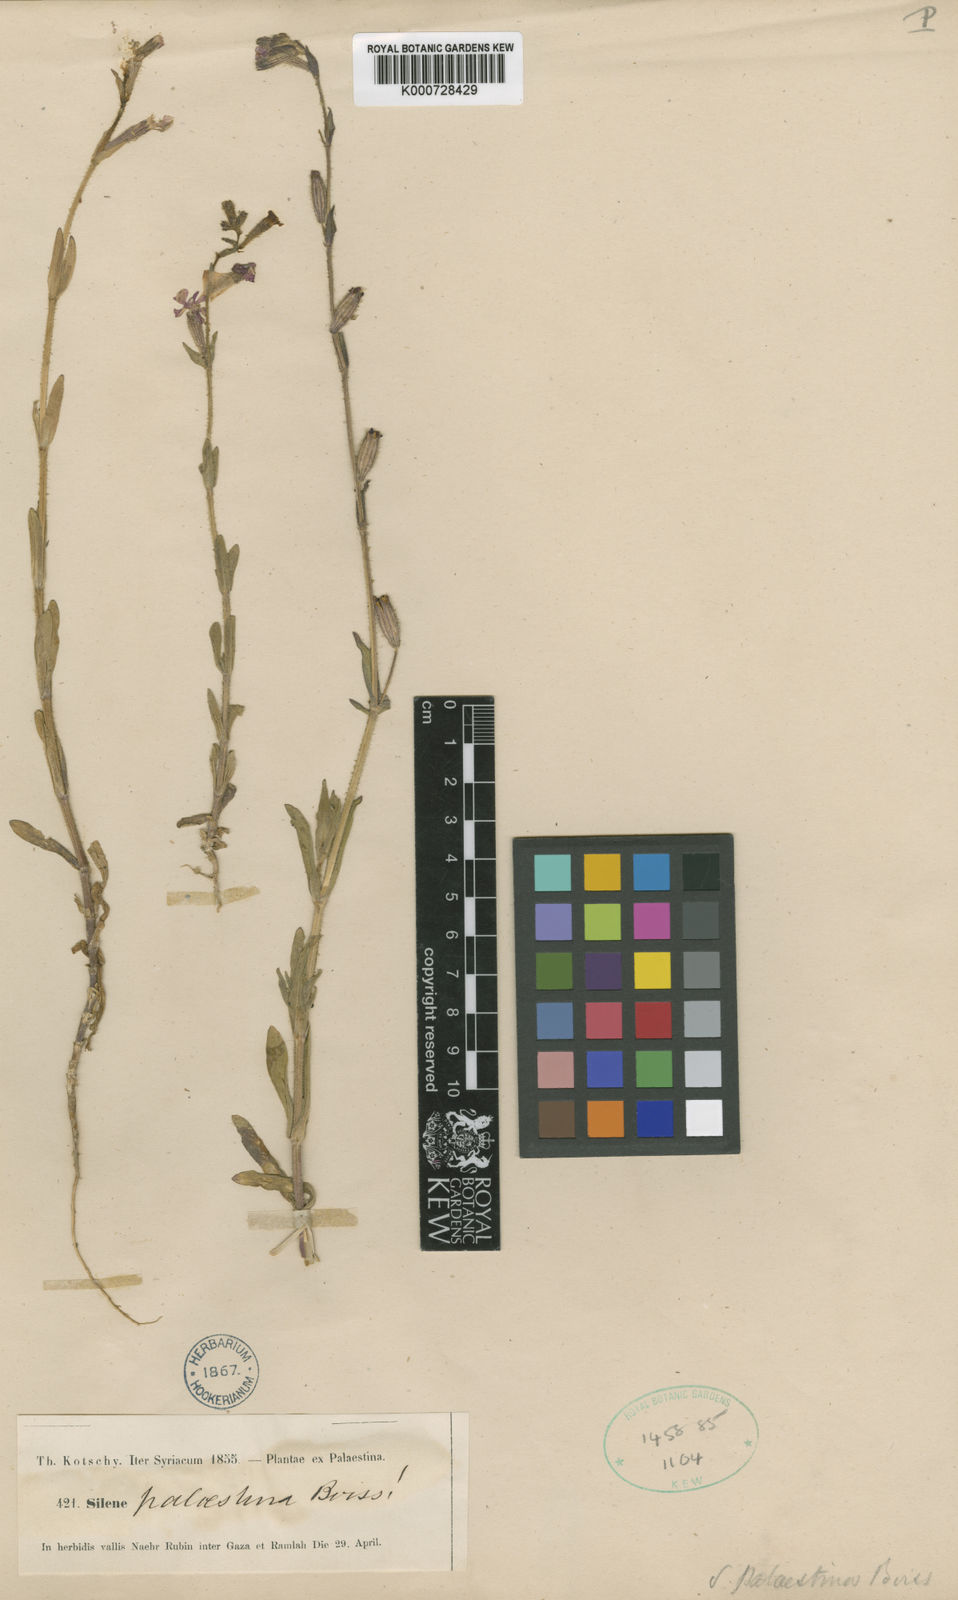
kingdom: Plantae
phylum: Tracheophyta
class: Magnoliopsida
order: Caryophyllales
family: Caryophyllaceae
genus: Silene
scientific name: Silene palaestina
